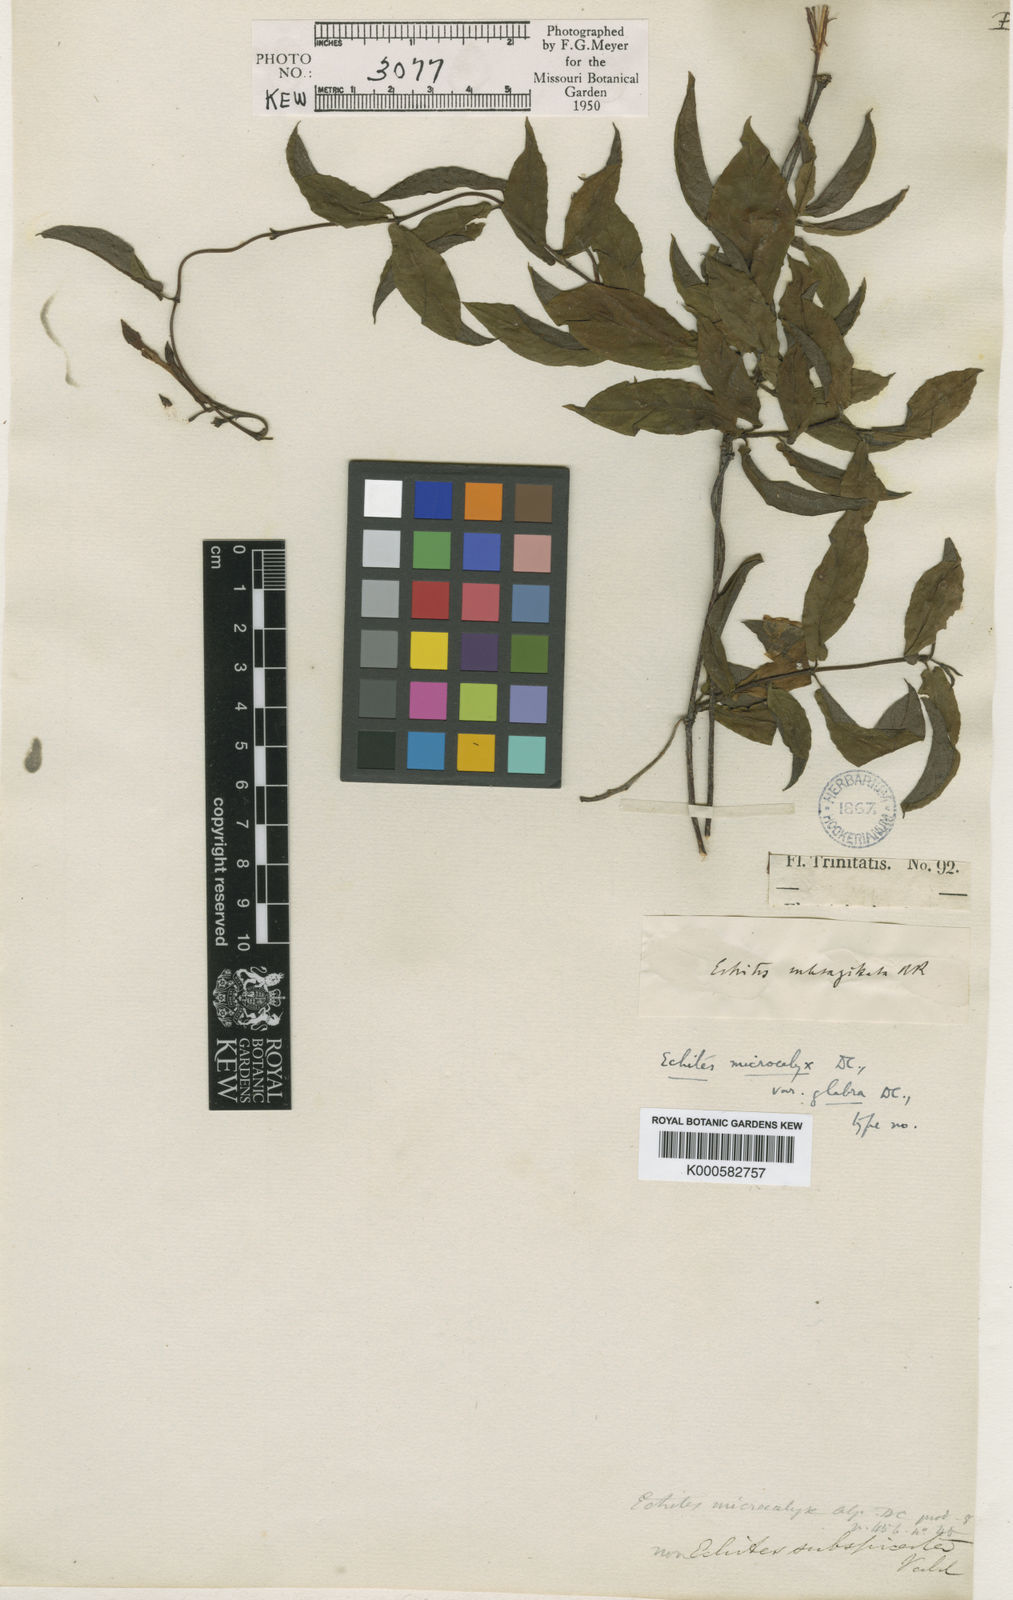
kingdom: Plantae
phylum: Tracheophyta
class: Magnoliopsida
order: Gentianales
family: Apocynaceae
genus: Mandevilla
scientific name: Mandevilla subsagittata
